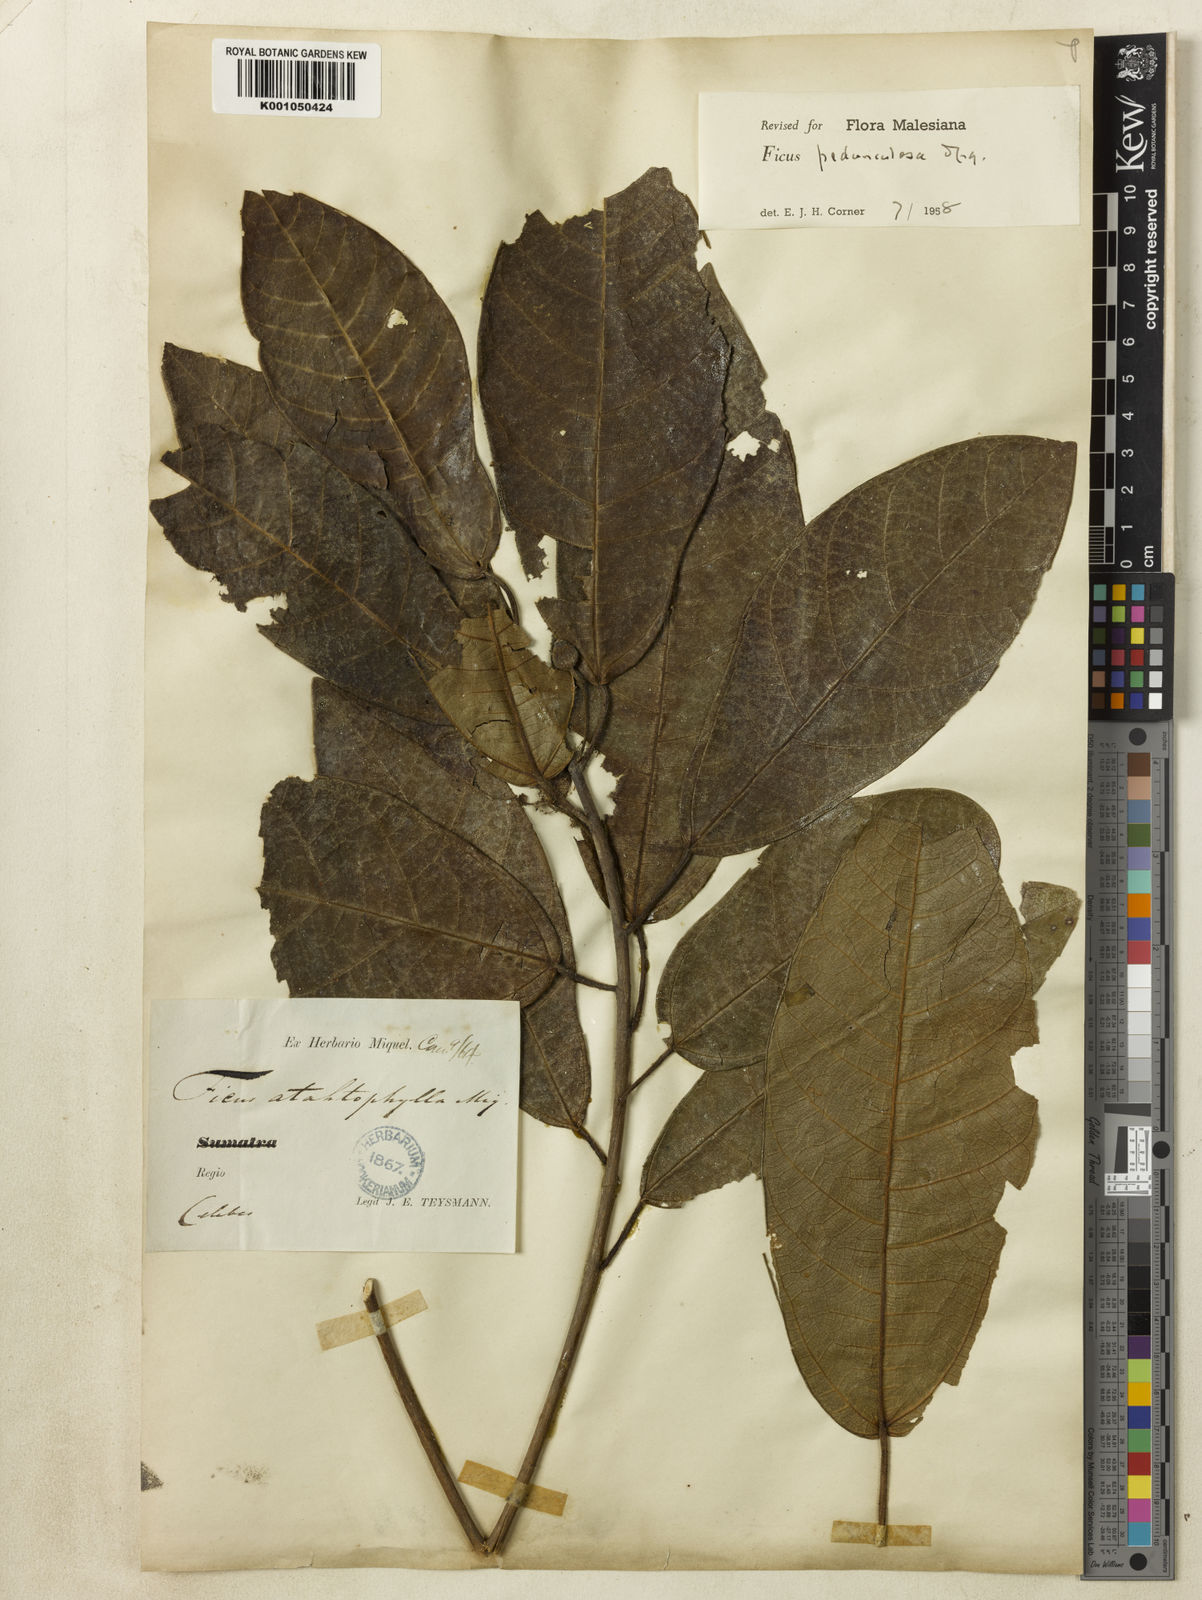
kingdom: Plantae
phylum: Tracheophyta
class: Magnoliopsida
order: Rosales
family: Moraceae
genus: Ficus
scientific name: Ficus pedunculosa
